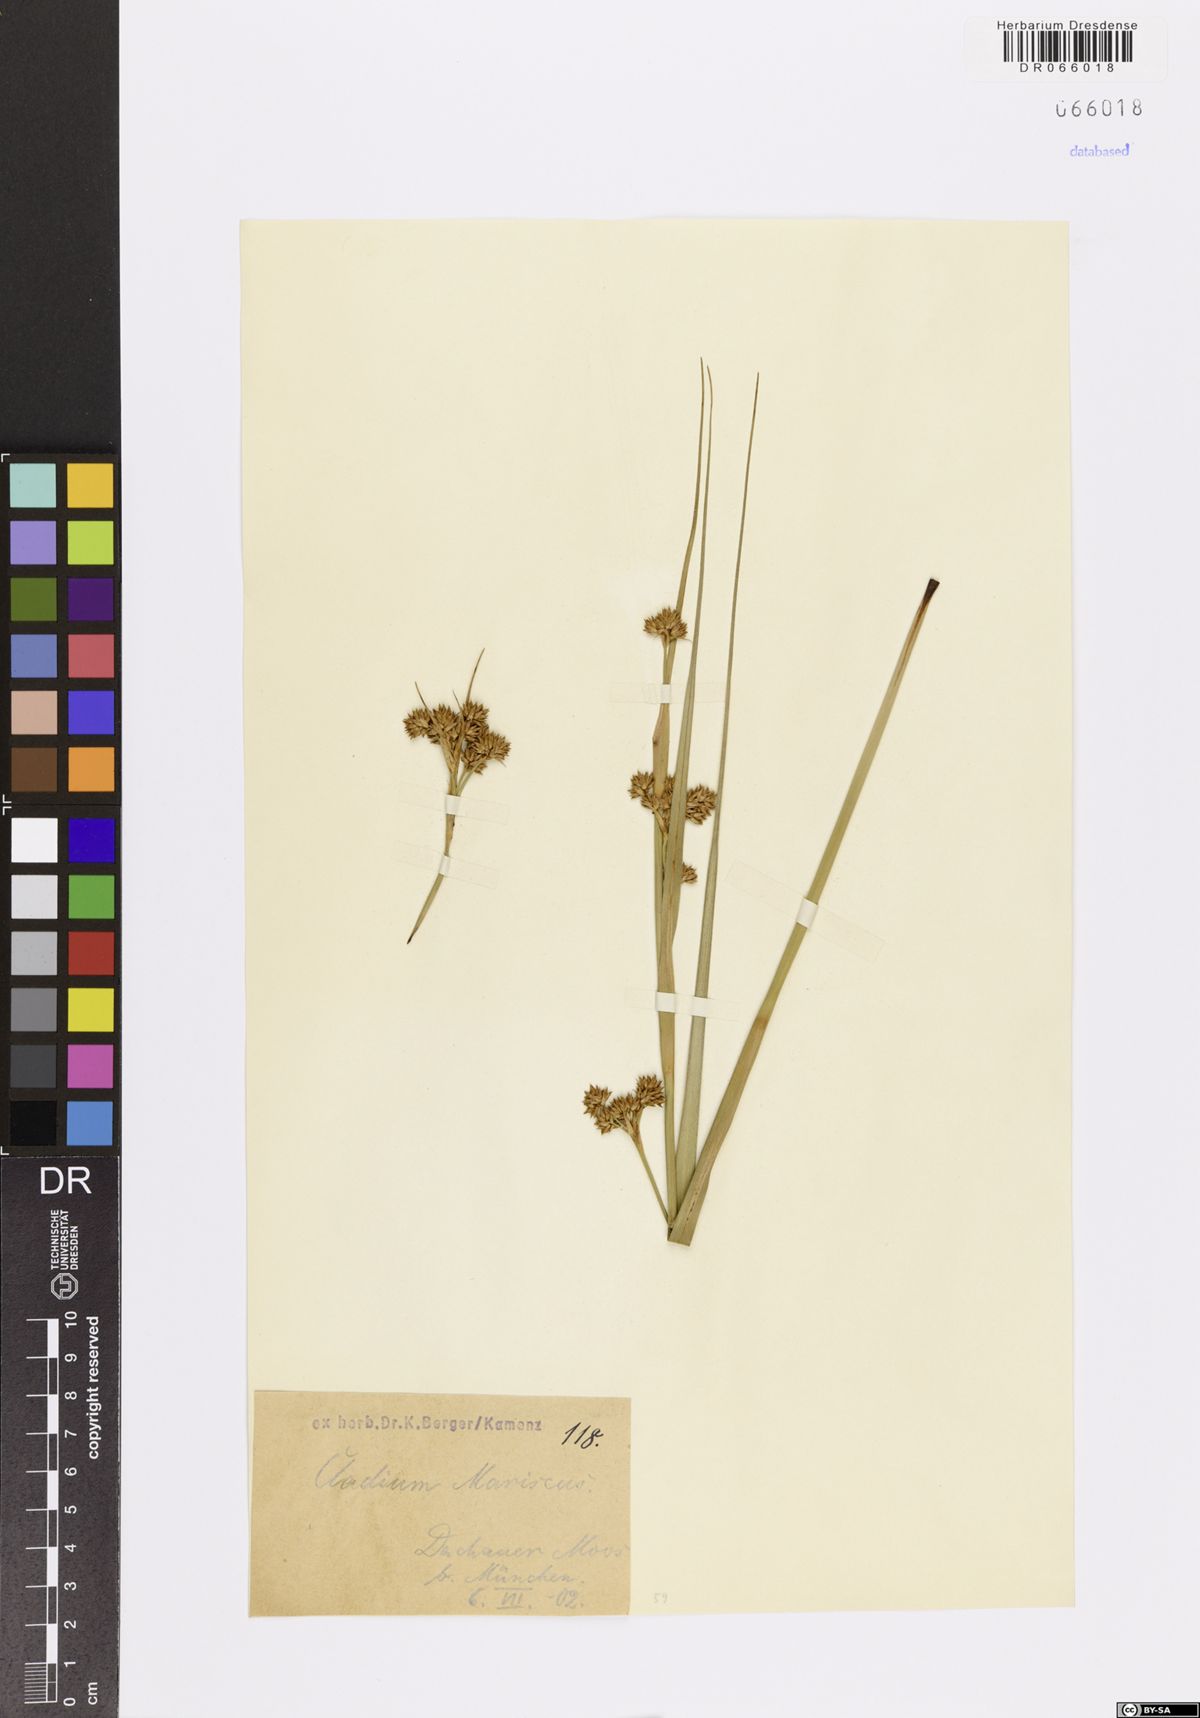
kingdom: Plantae
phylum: Tracheophyta
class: Liliopsida
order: Poales
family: Cyperaceae
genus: Cladium
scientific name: Cladium mariscus
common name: Great fen-sedge
